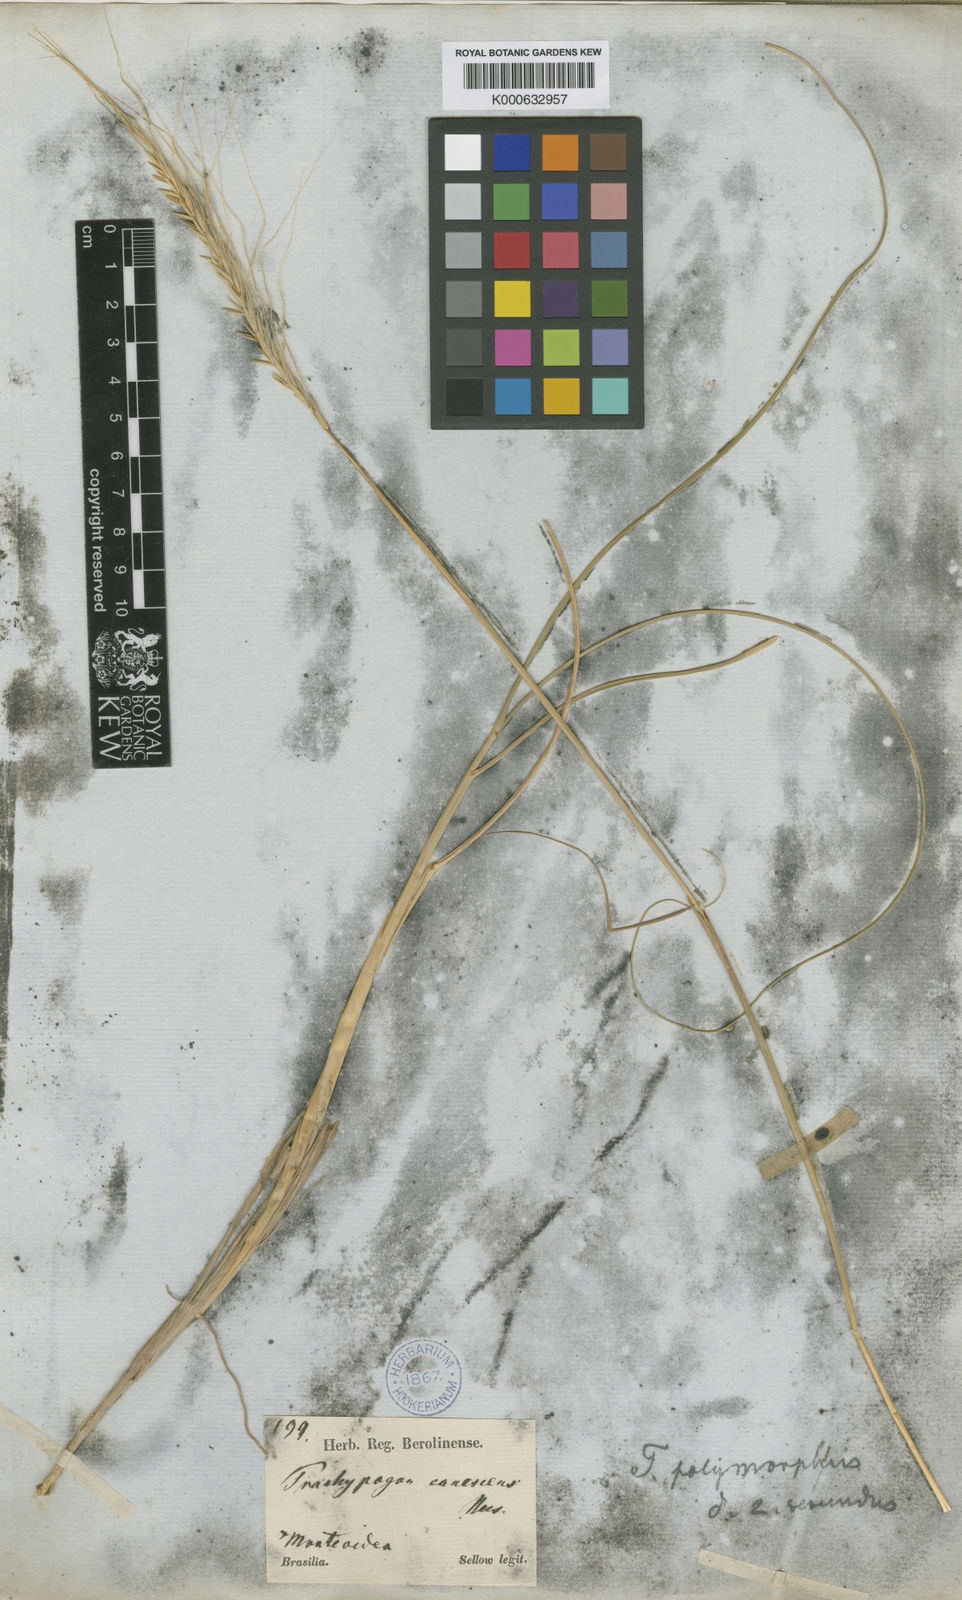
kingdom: Plantae
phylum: Tracheophyta
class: Liliopsida
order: Poales
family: Poaceae
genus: Trachypogon
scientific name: Trachypogon spicatus
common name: Crinkle-awn
